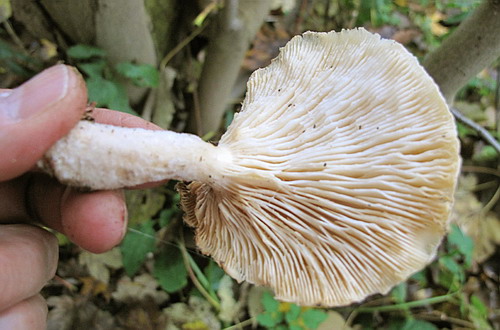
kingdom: Fungi
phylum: Basidiomycota
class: Agaricomycetes
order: Agaricales
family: Pleurotaceae
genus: Pleurotus
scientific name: Pleurotus dryinus
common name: korkagtig østershat
